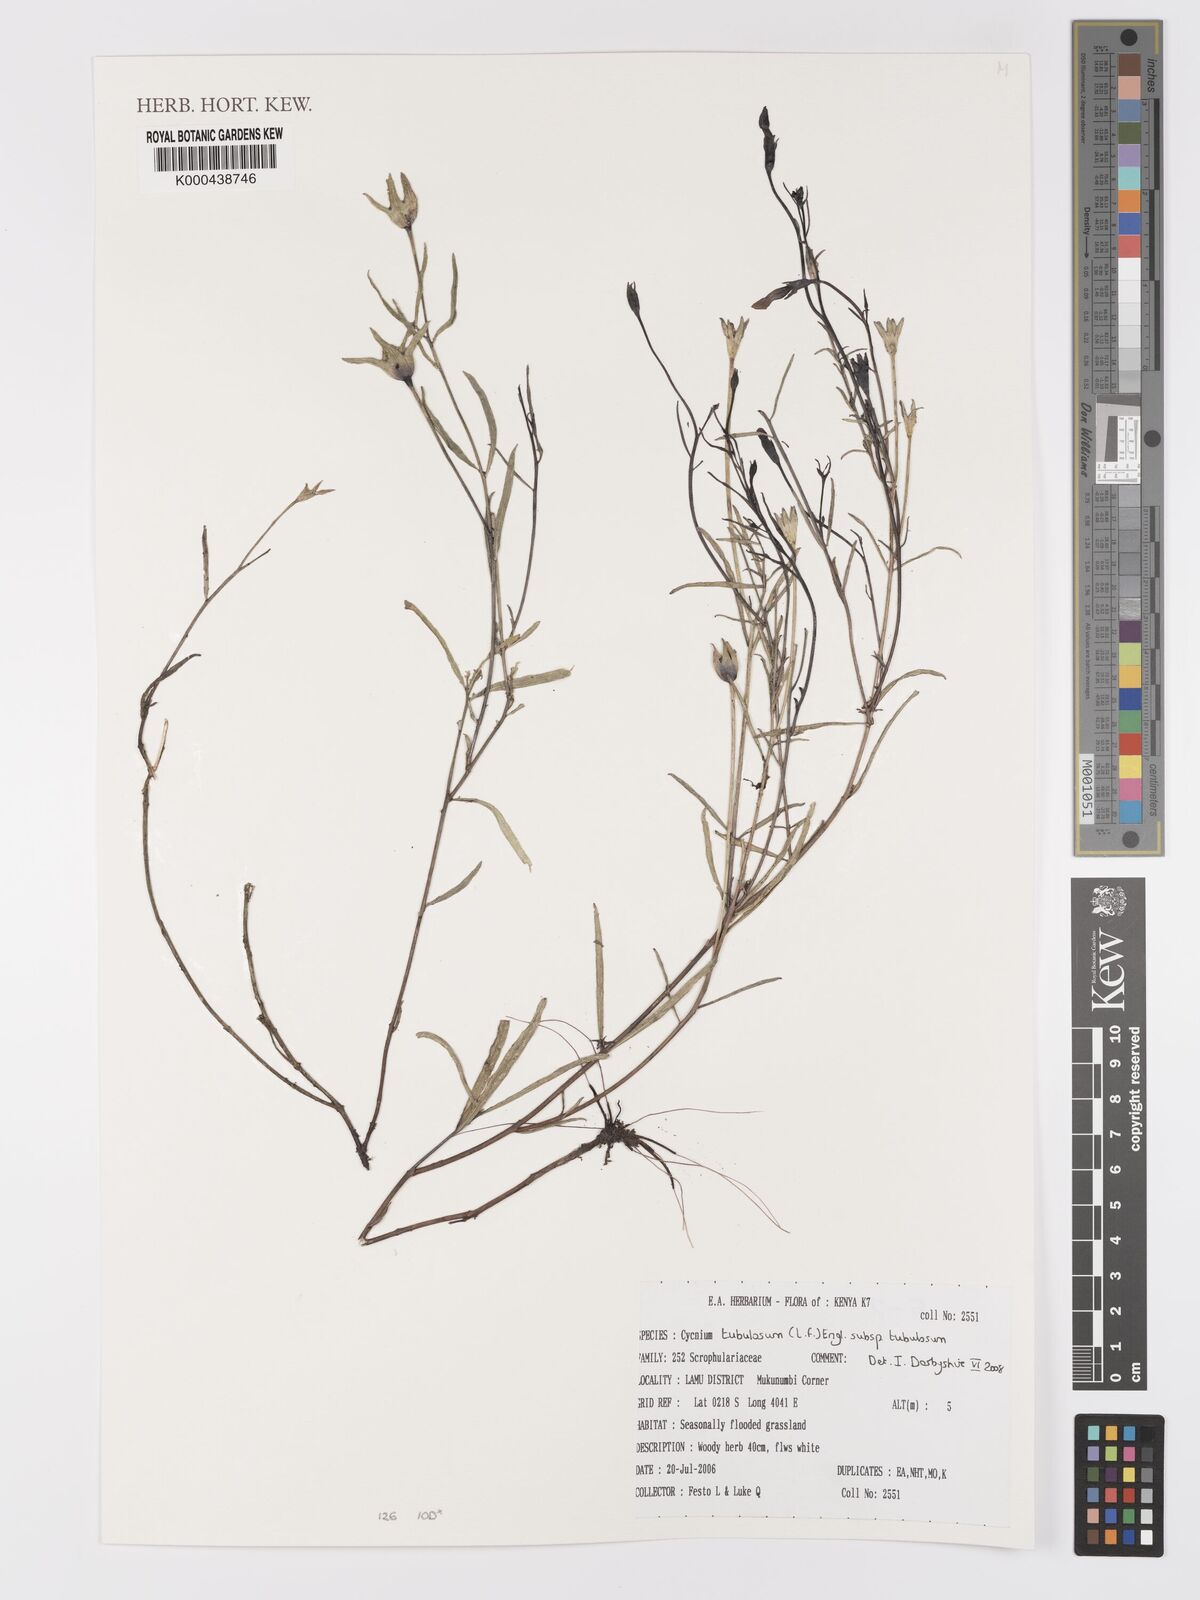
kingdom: Plantae
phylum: Tracheophyta
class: Magnoliopsida
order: Lamiales
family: Orobanchaceae
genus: Cycnium
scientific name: Cycnium tubulosum
